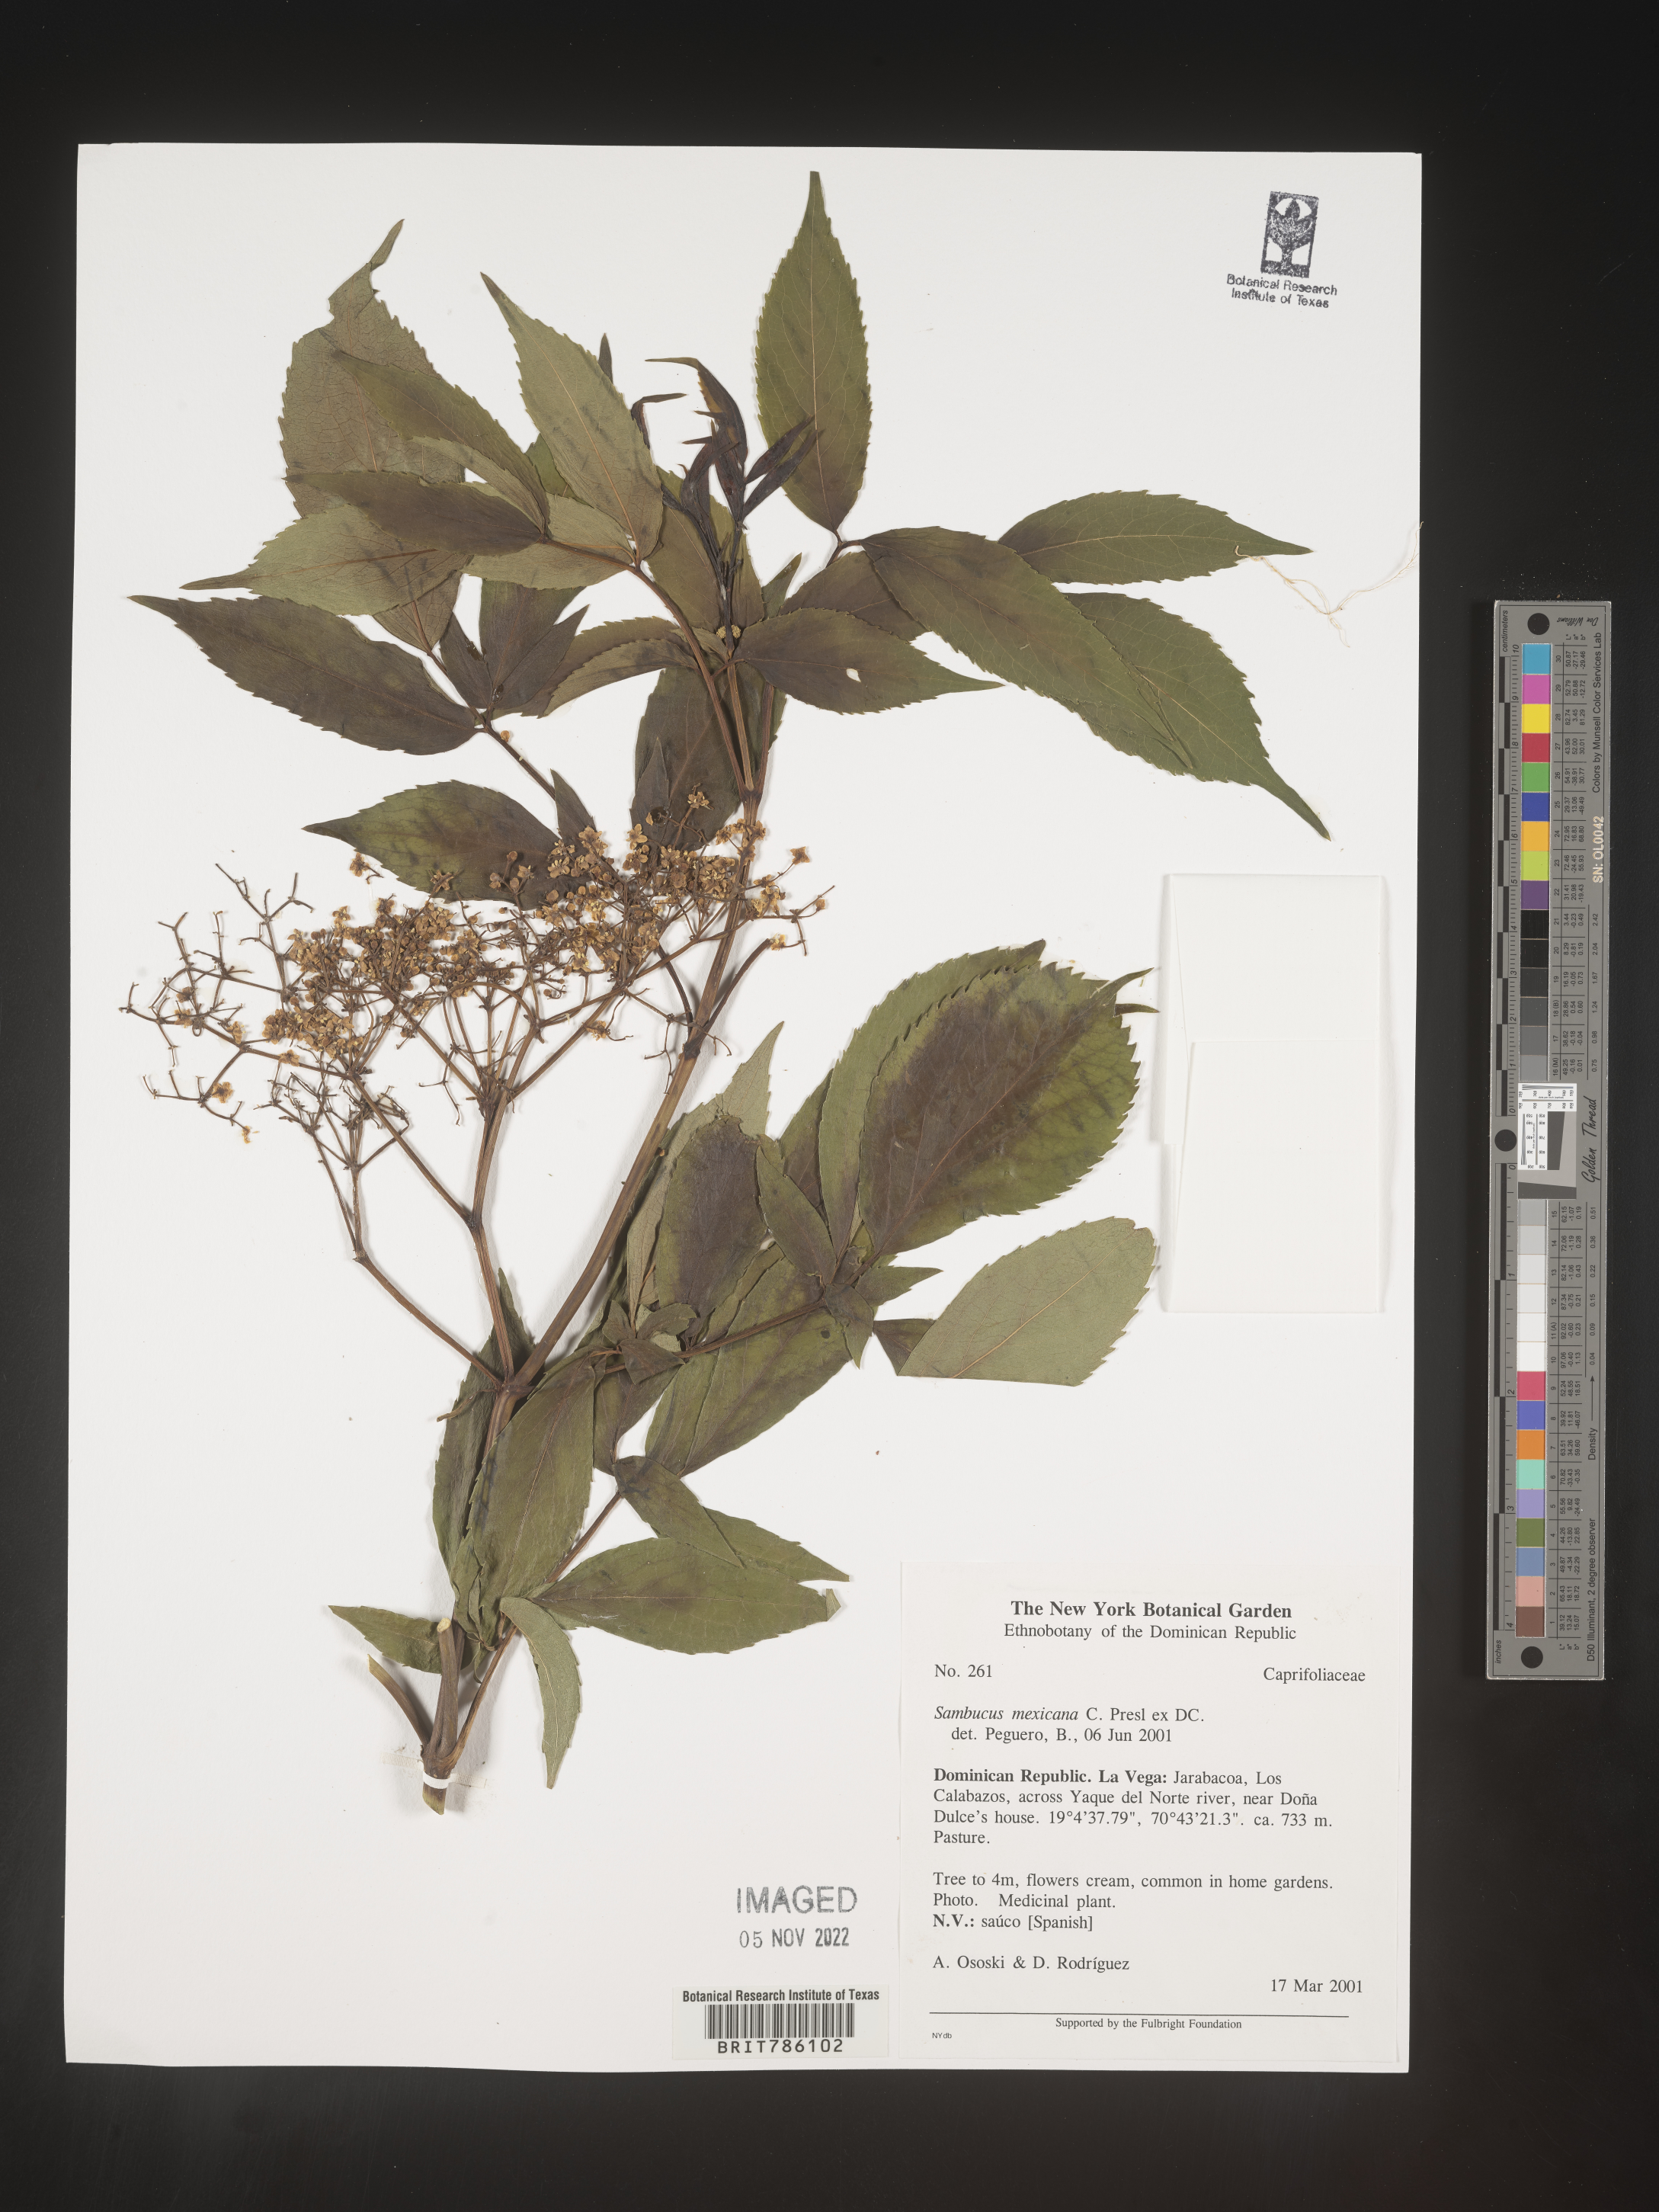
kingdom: Plantae
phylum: Tracheophyta
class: Magnoliopsida
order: Dipsacales
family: Viburnaceae
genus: Sambucus
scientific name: Sambucus
